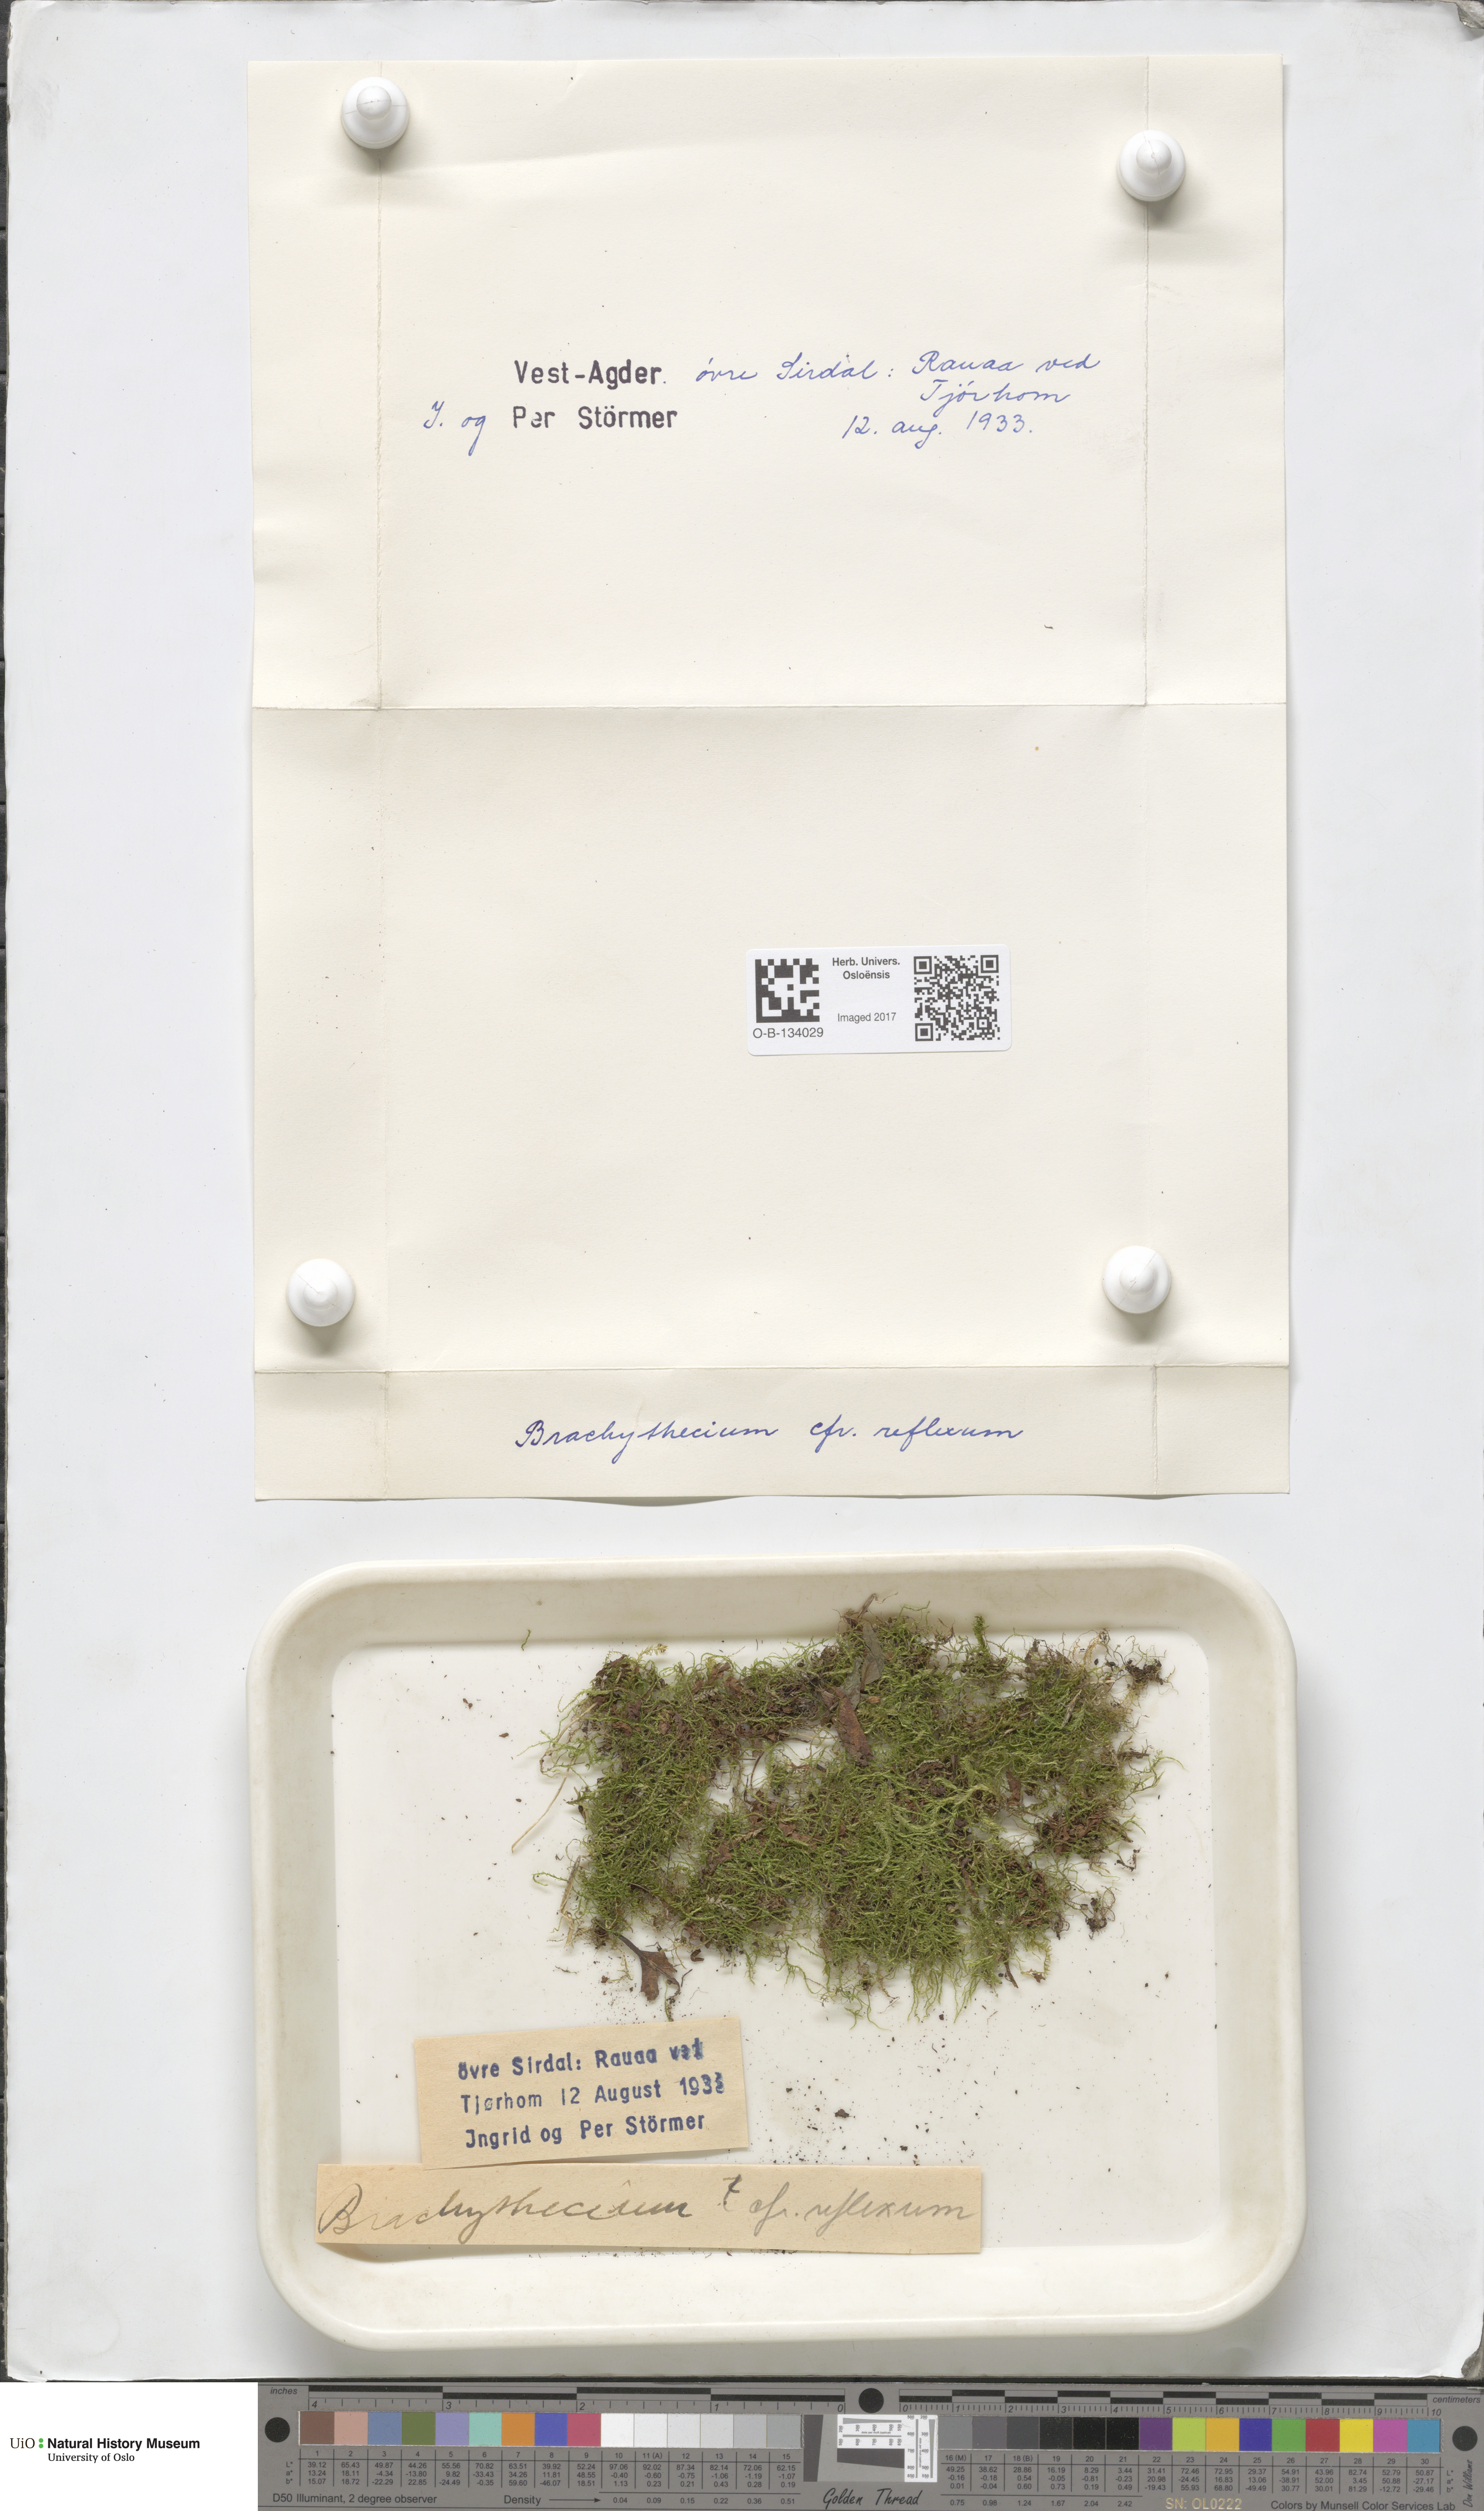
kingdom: Plantae
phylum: Bryophyta
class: Bryopsida
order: Hypnales
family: Brachytheciaceae
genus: Sciuro-hypnum
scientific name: Sciuro-hypnum reflexum
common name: Reflexed feather-moss
